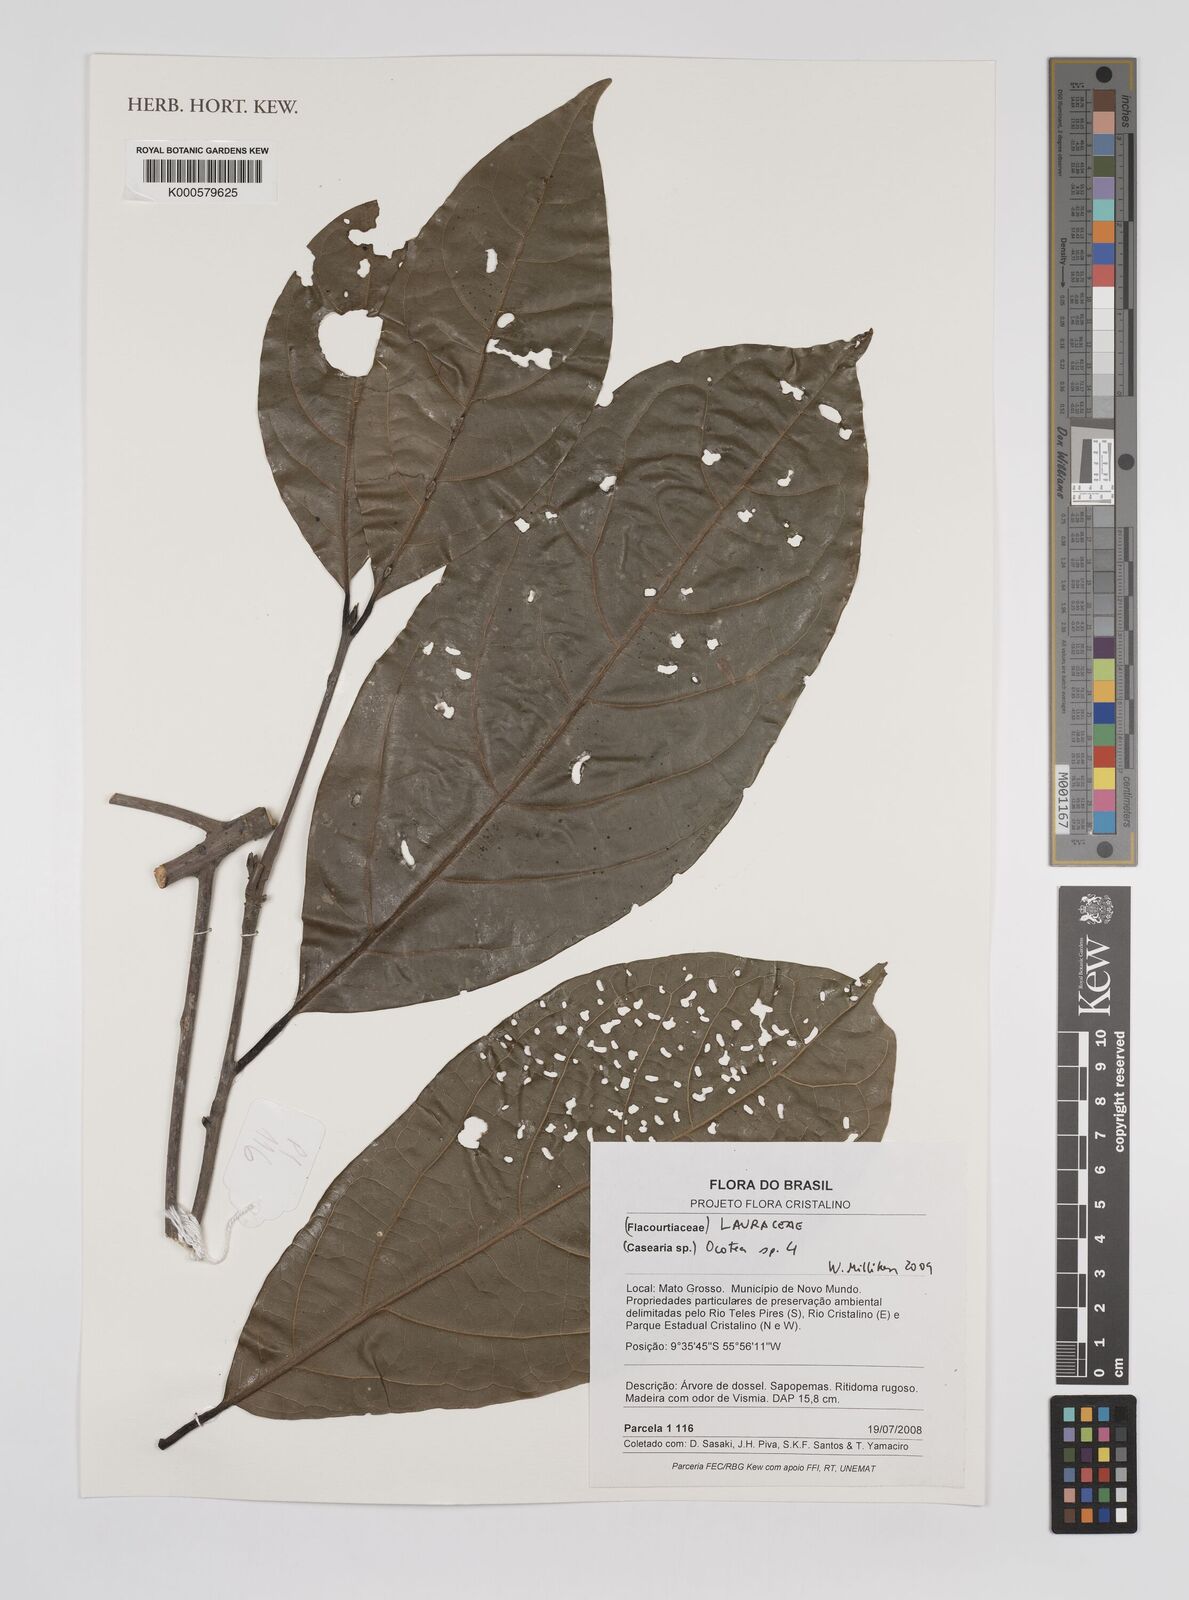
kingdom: Plantae
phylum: Tracheophyta
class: Magnoliopsida
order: Laurales
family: Lauraceae
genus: Ocotea
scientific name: Ocotea
